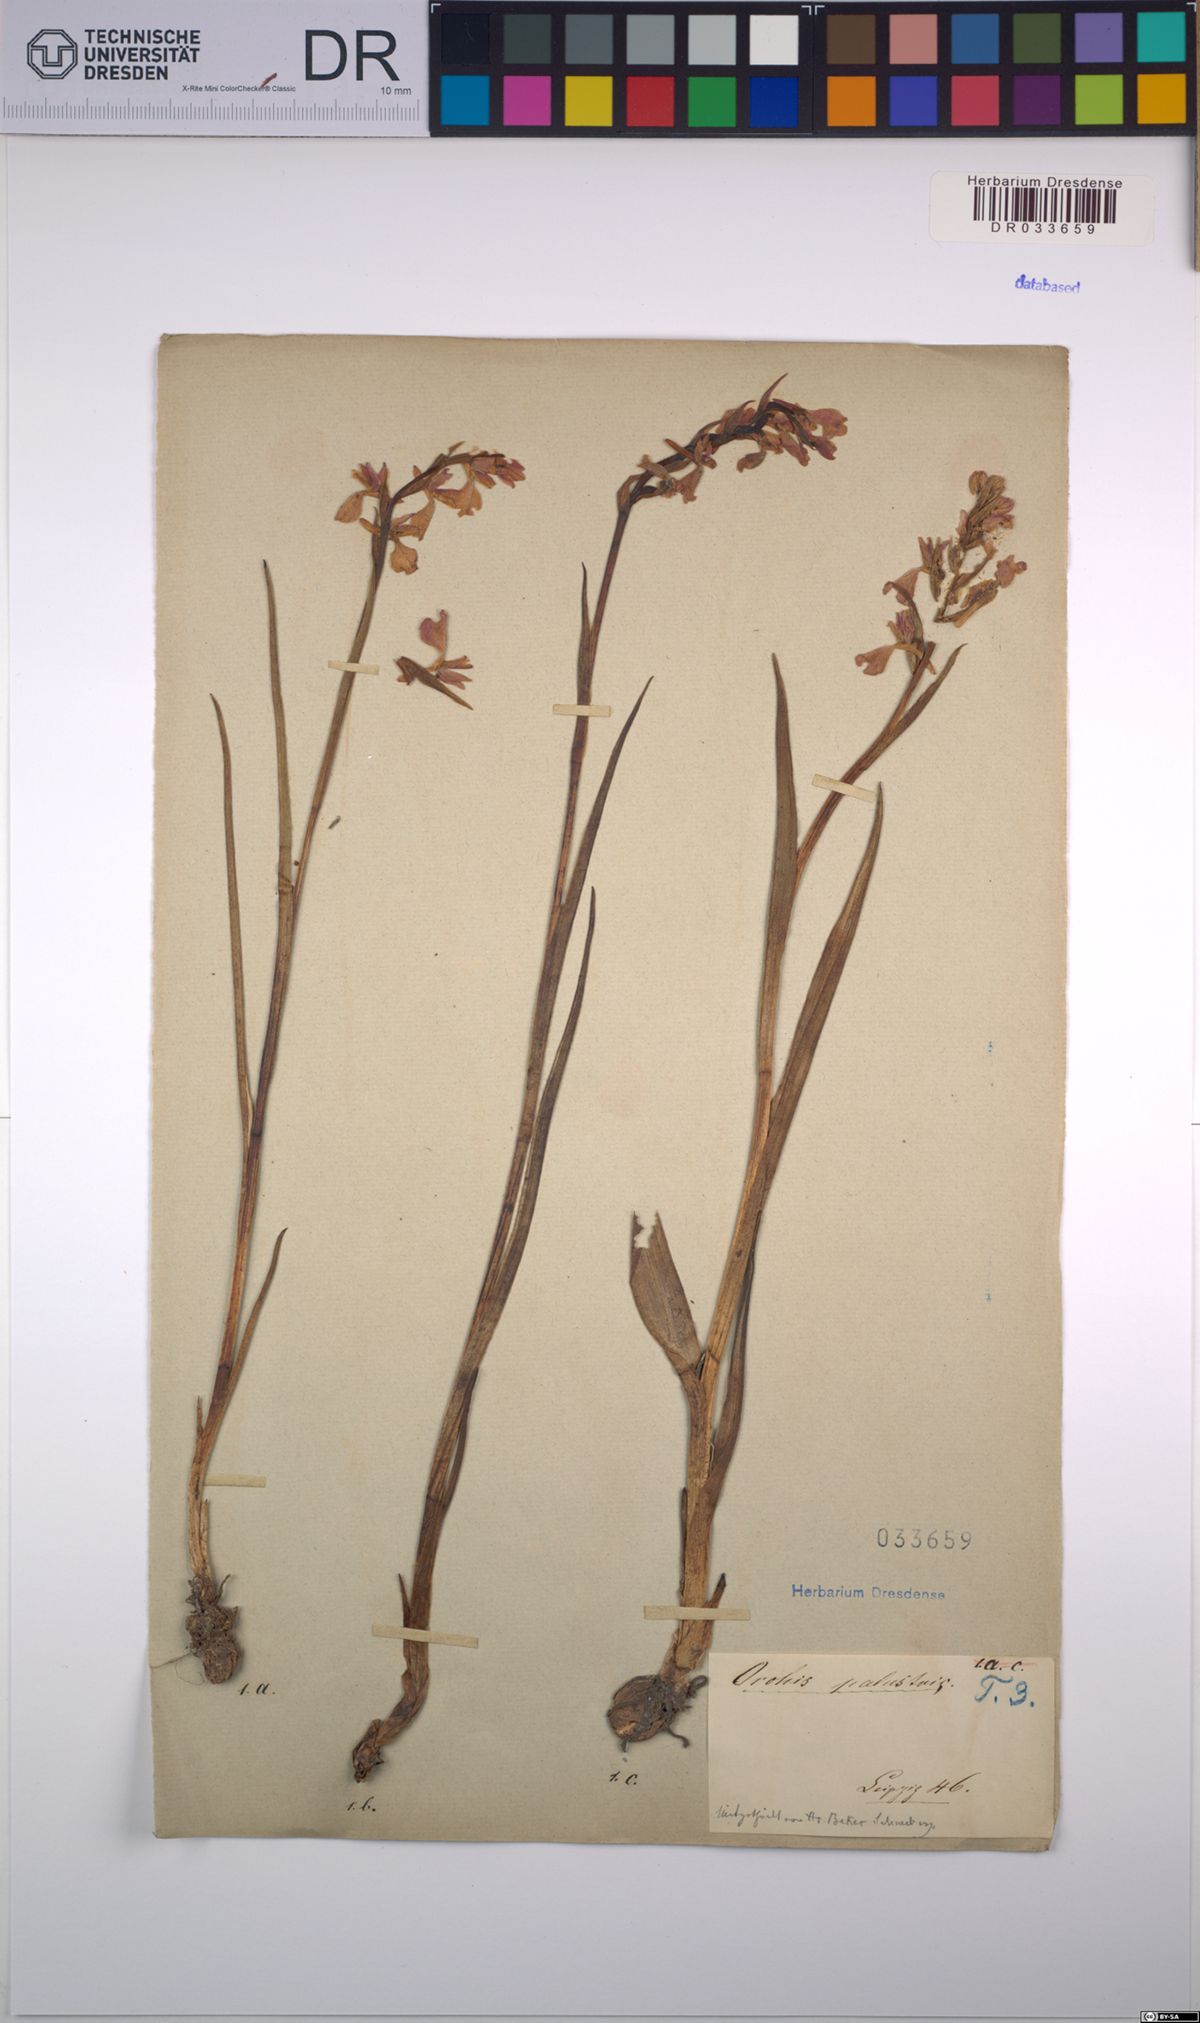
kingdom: Plantae
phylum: Tracheophyta
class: Liliopsida
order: Asparagales
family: Orchidaceae
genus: Anacamptis
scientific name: Anacamptis palustris
